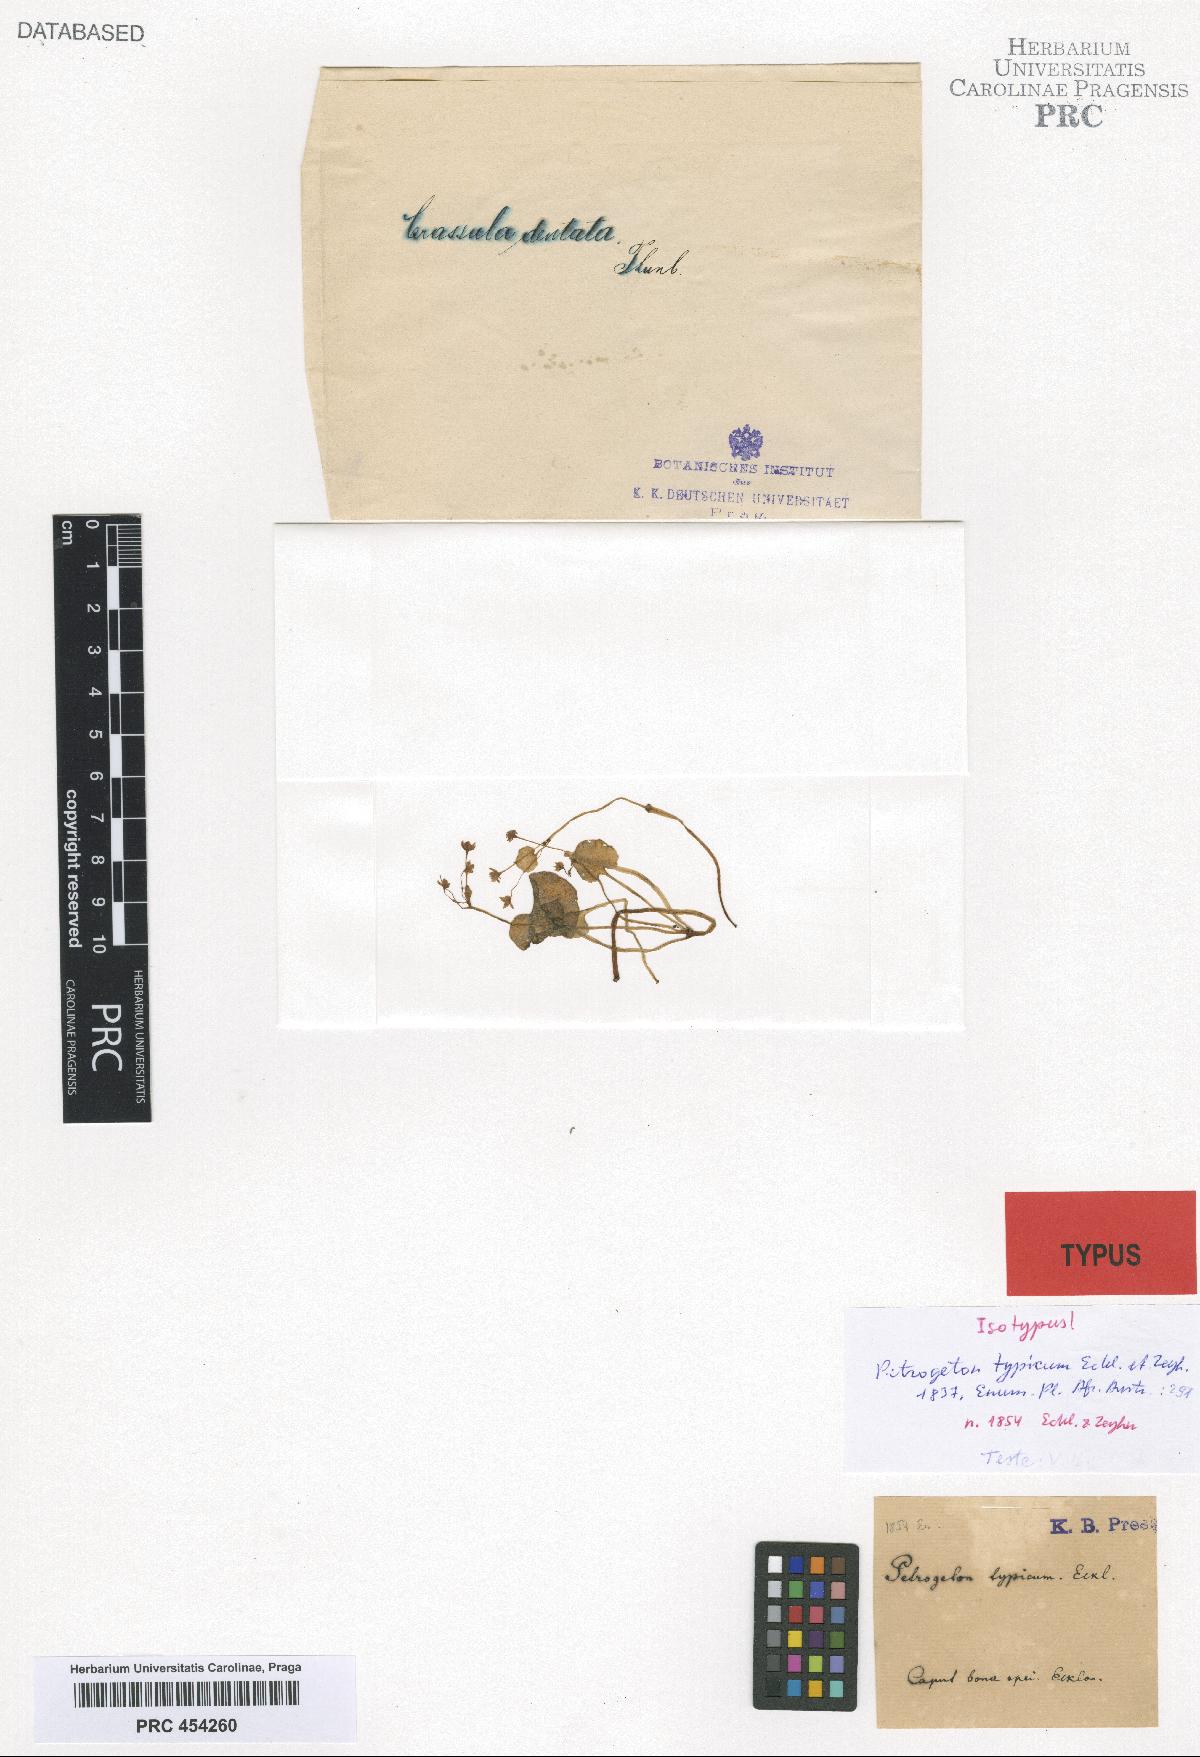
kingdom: Plantae
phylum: Tracheophyta
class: Magnoliopsida
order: Saxifragales
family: Crassulaceae
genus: Crassula
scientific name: Crassula dentata
